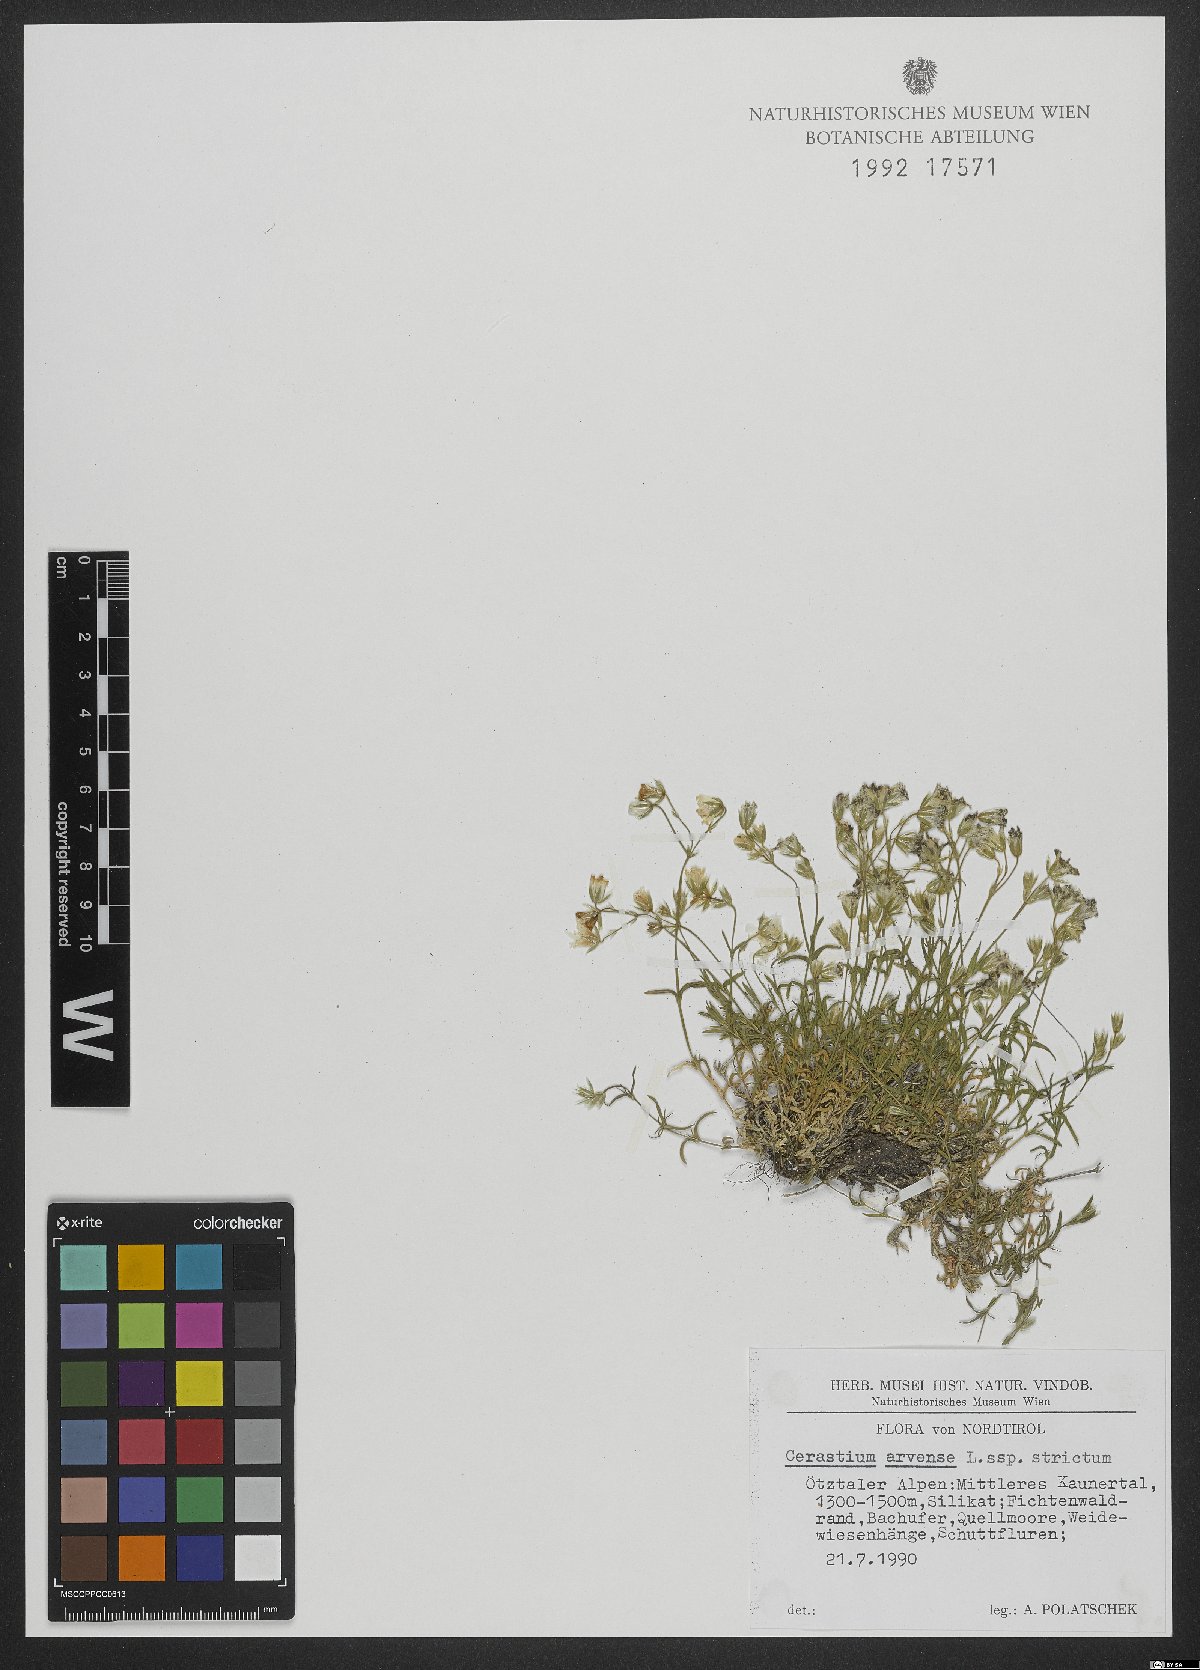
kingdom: Plantae
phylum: Tracheophyta
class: Magnoliopsida
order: Caryophyllales
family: Caryophyllaceae
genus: Cerastium
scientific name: Cerastium elongatum
